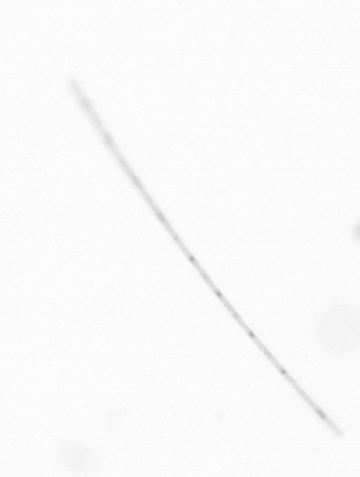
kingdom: Chromista
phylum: Ochrophyta
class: Bacillariophyceae
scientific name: Bacillariophyceae
